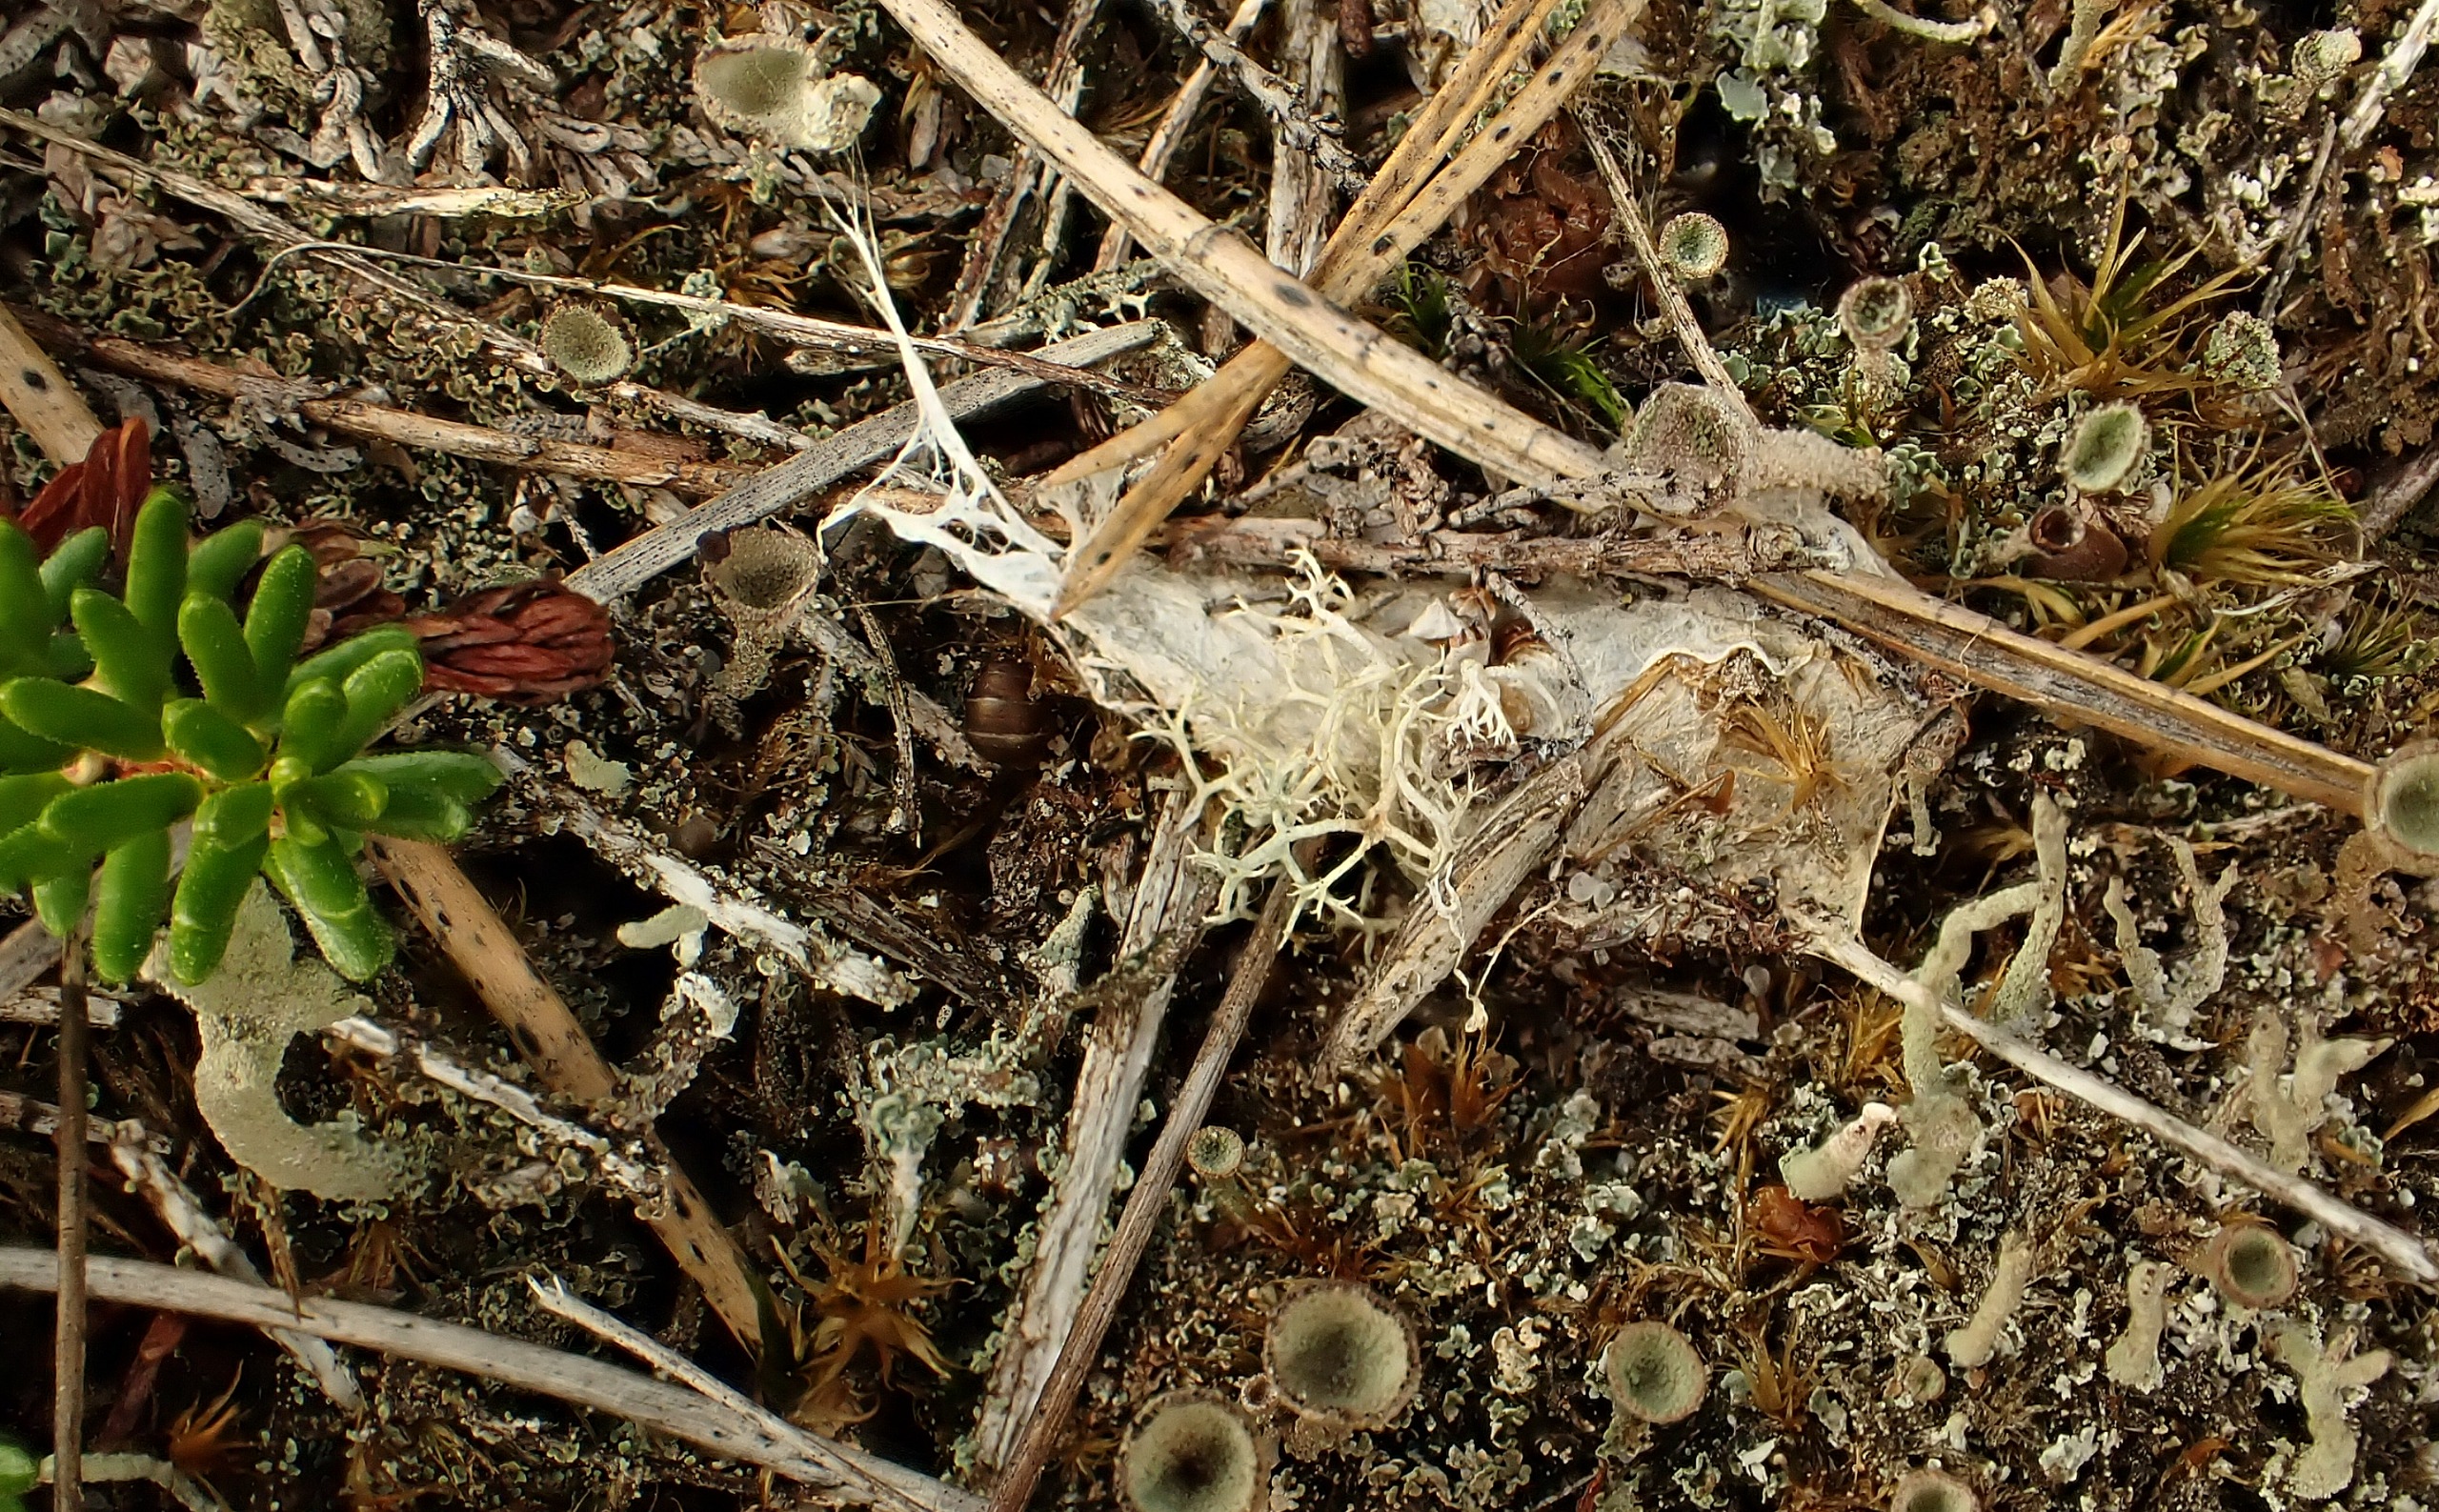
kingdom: Animalia
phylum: Arthropoda
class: Arachnida
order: Araneae
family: Eresidae
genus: Eresus
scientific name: Eresus sandaliatus
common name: Mariehøneedderkop
